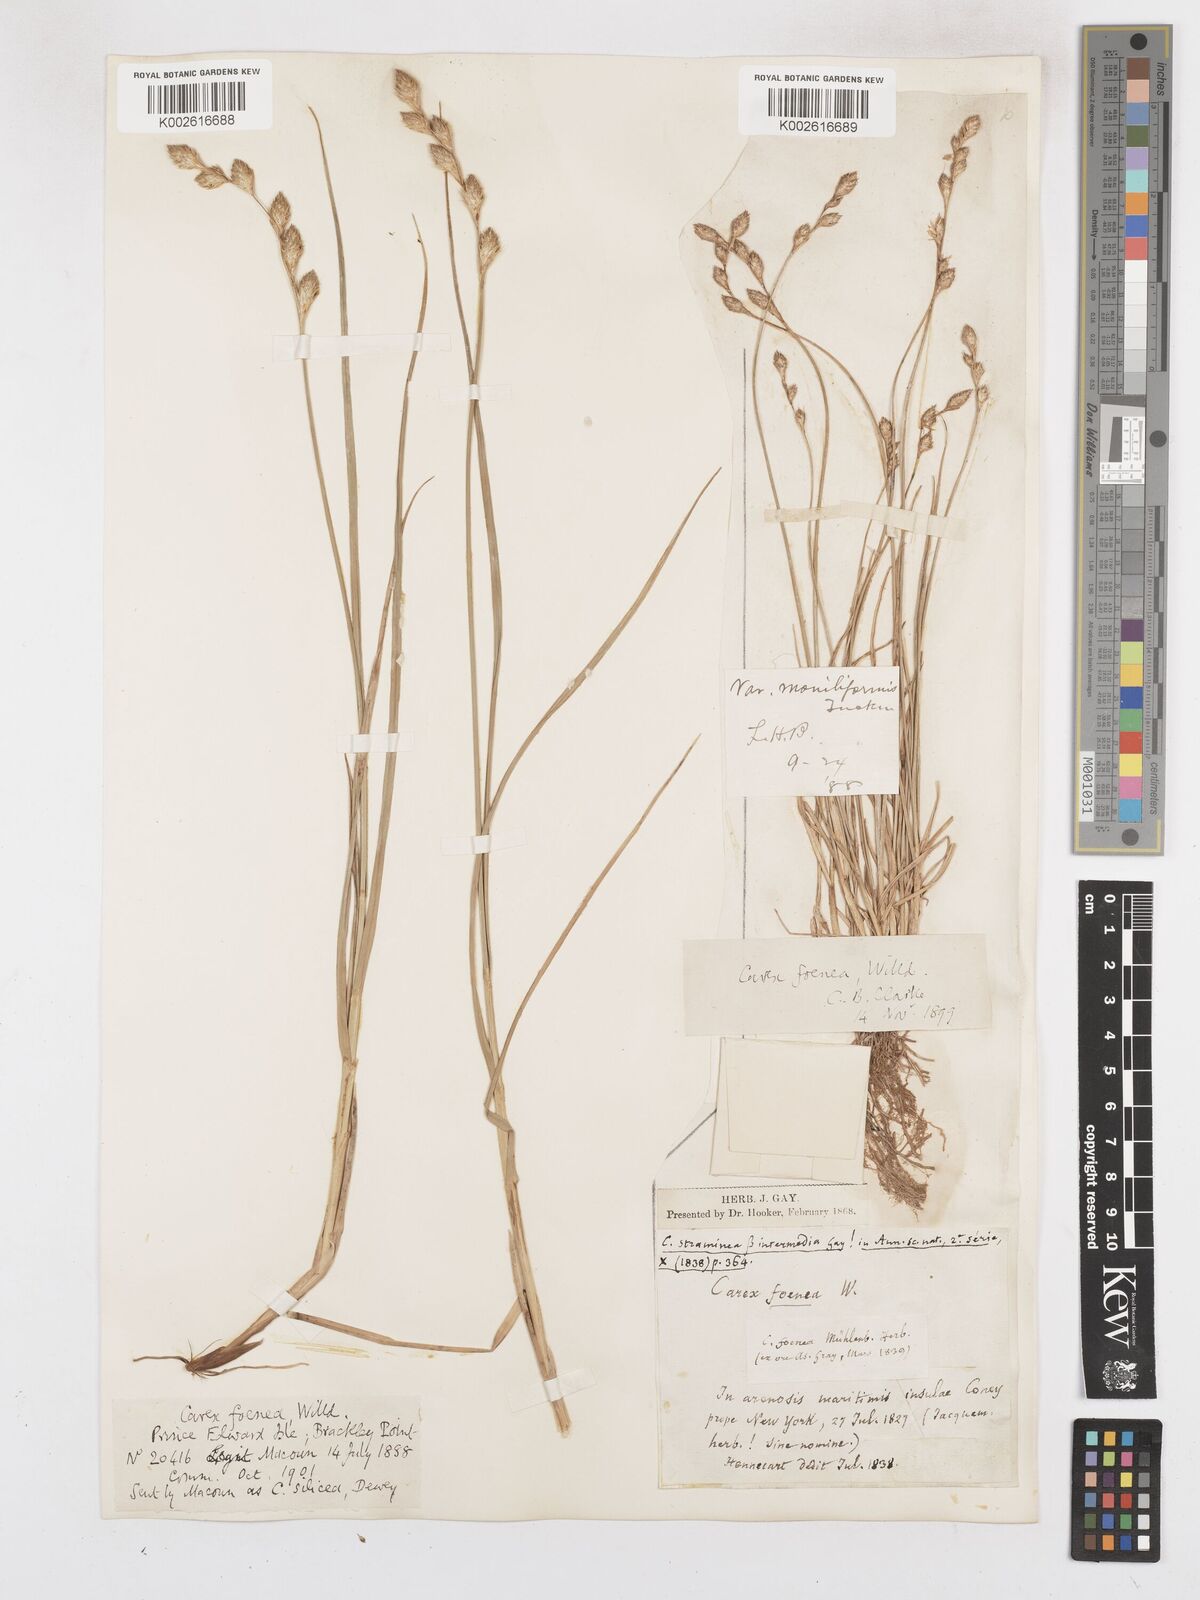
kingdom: Plantae
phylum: Tracheophyta
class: Liliopsida
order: Poales
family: Cyperaceae
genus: Carex
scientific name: Carex argyrantha
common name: Silvery-flowered sedge
